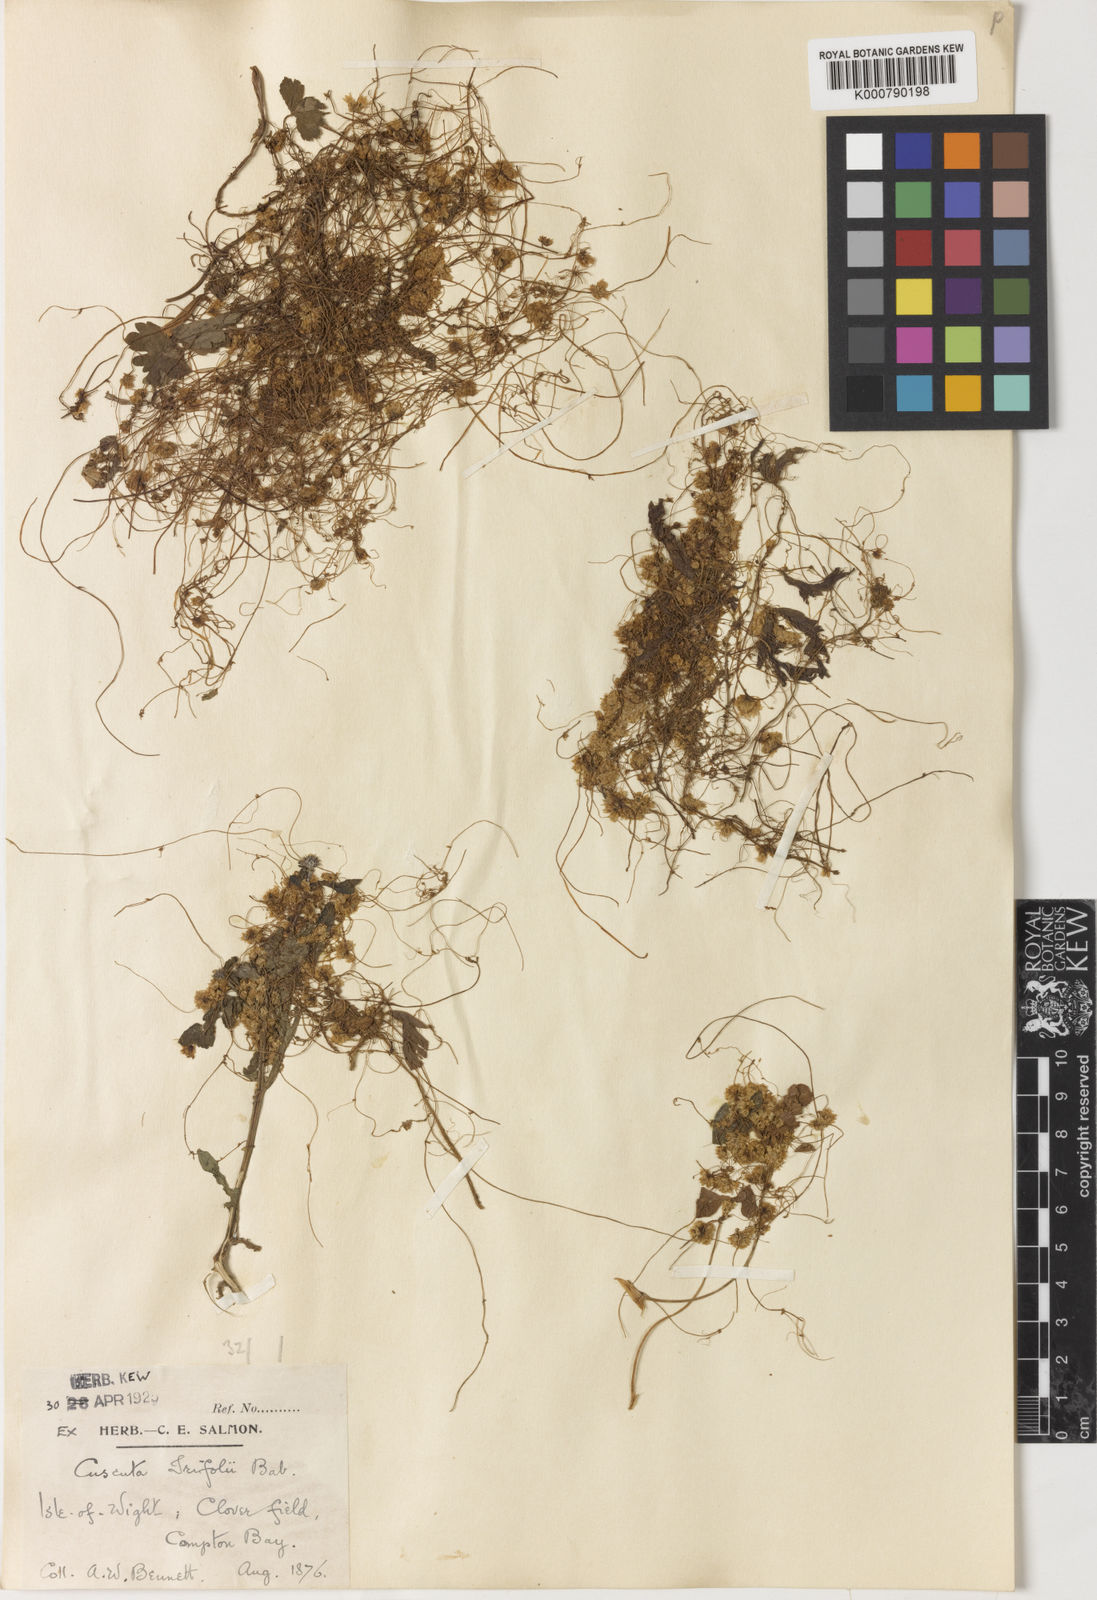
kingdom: Plantae
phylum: Tracheophyta
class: Magnoliopsida
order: Solanales
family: Convolvulaceae
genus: Cuscuta
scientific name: Cuscuta epithymum
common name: Clover dodder
